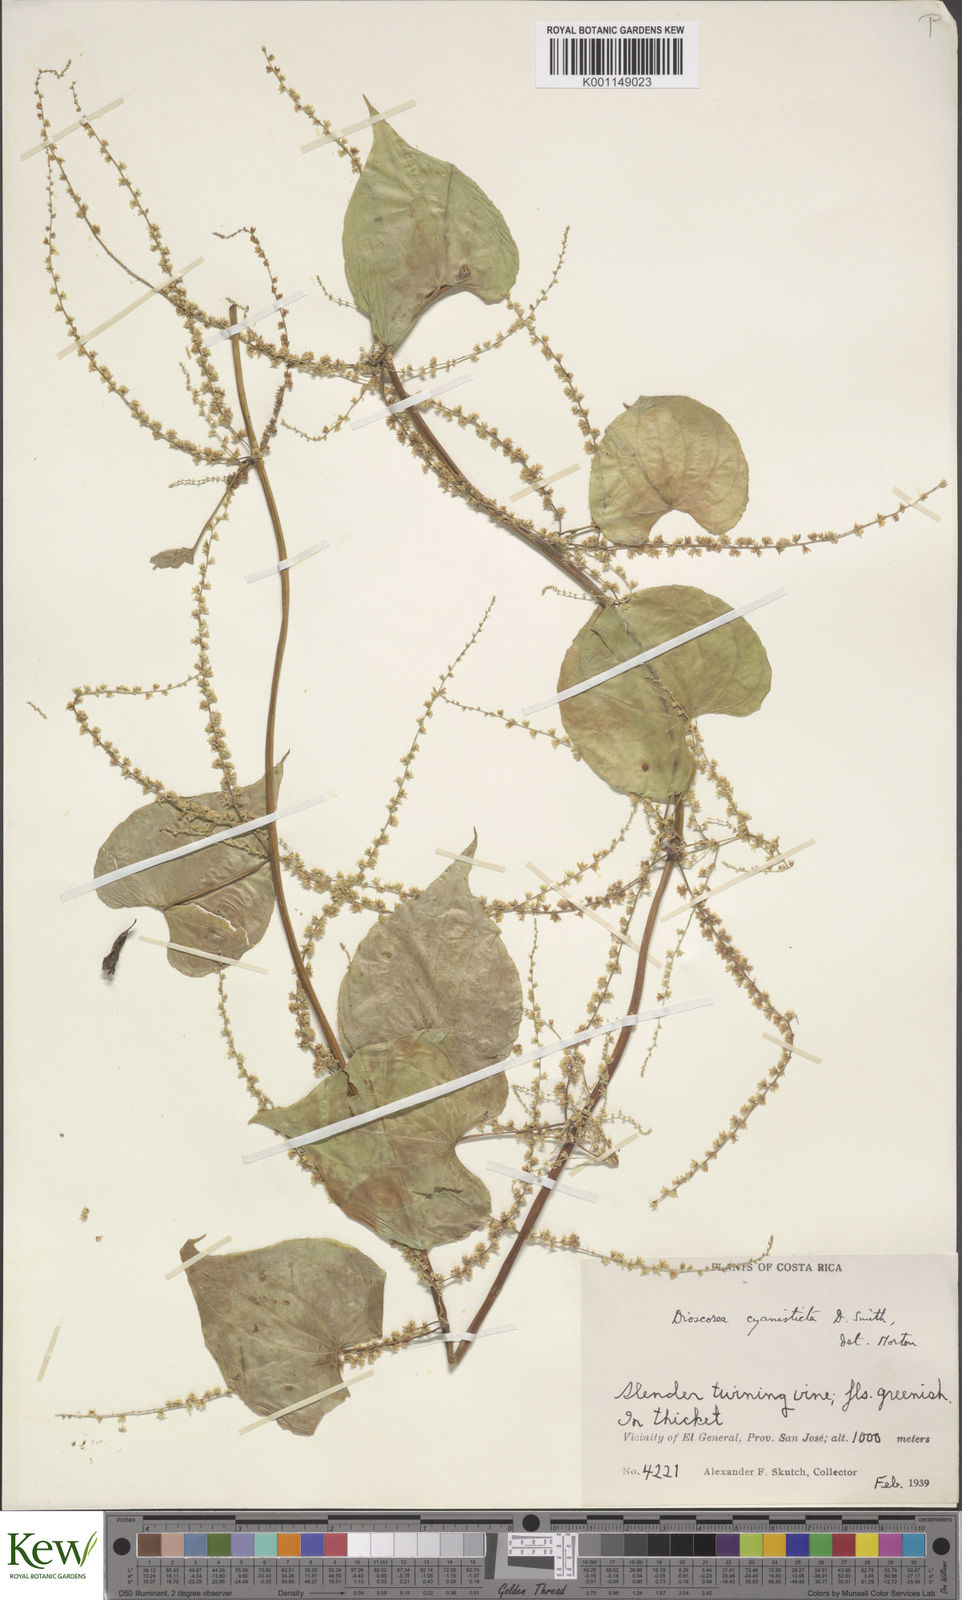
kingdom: Plantae
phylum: Tracheophyta
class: Liliopsida
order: Dioscoreales
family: Dioscoreaceae
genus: Dioscorea
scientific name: Dioscorea cyanisticta
